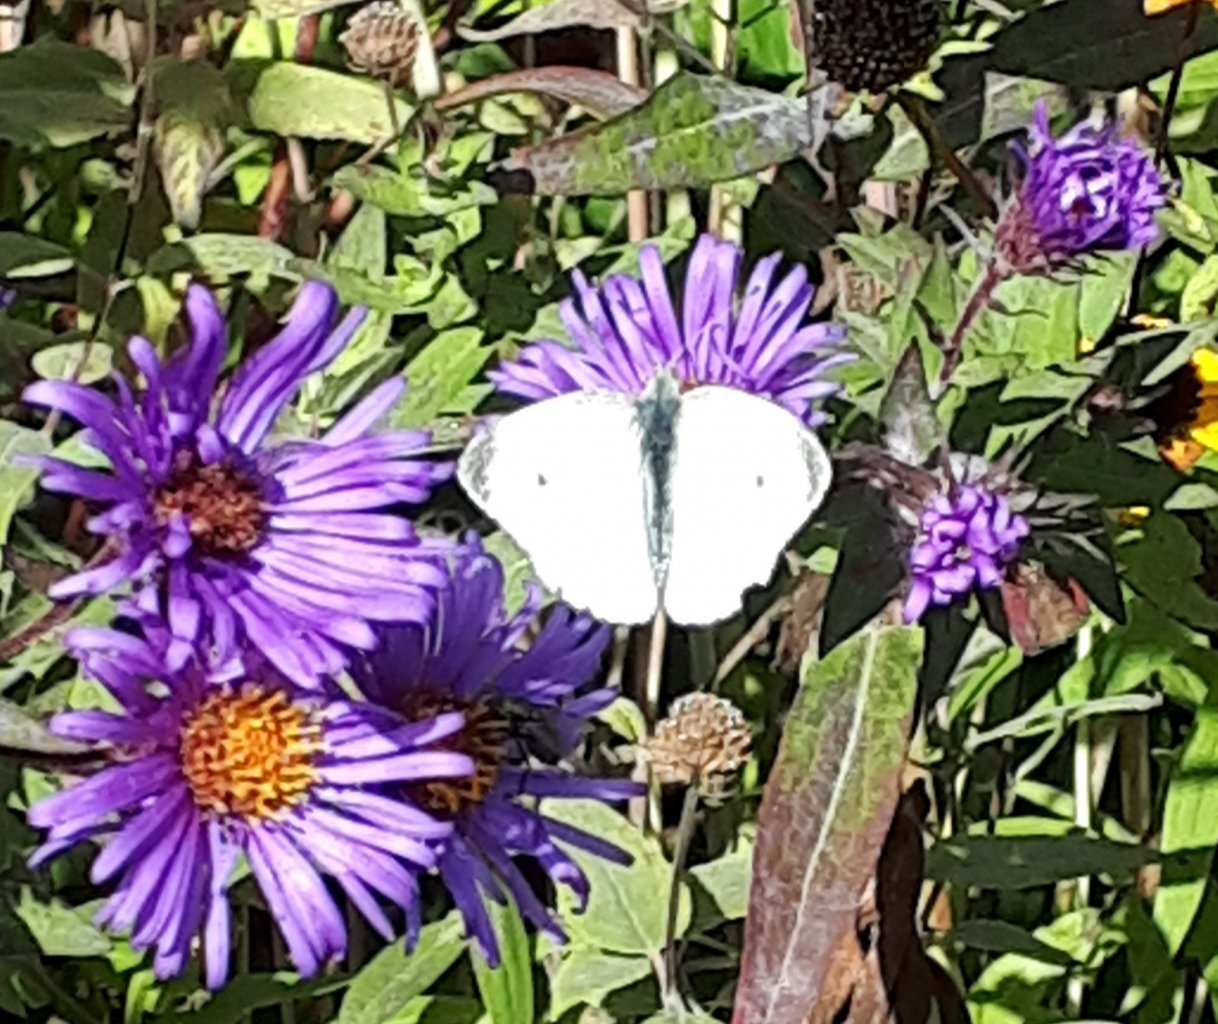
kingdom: Animalia
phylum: Arthropoda
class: Insecta
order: Lepidoptera
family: Pieridae
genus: Pieris
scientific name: Pieris rapae
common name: Cabbage White
